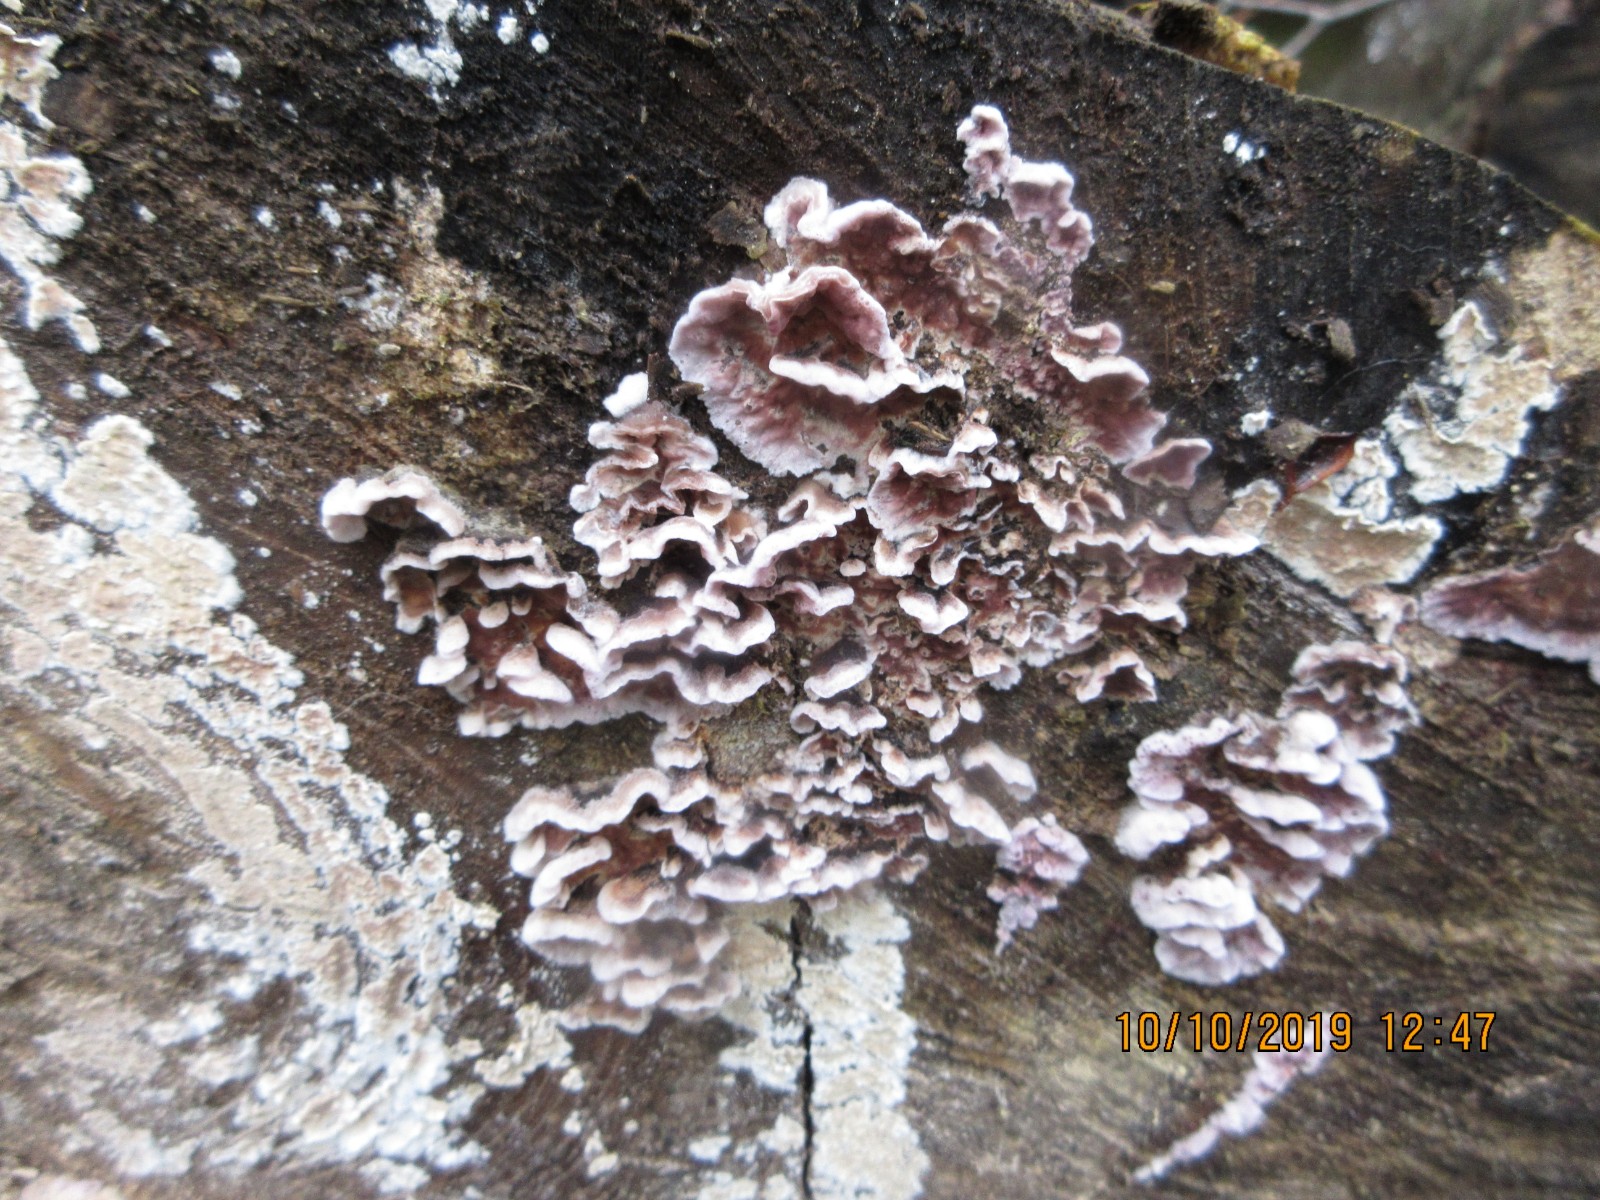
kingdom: Fungi
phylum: Basidiomycota
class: Agaricomycetes
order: Hymenochaetales
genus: Trichaptum
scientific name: Trichaptum abietinum
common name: almindelig violporesvamp
